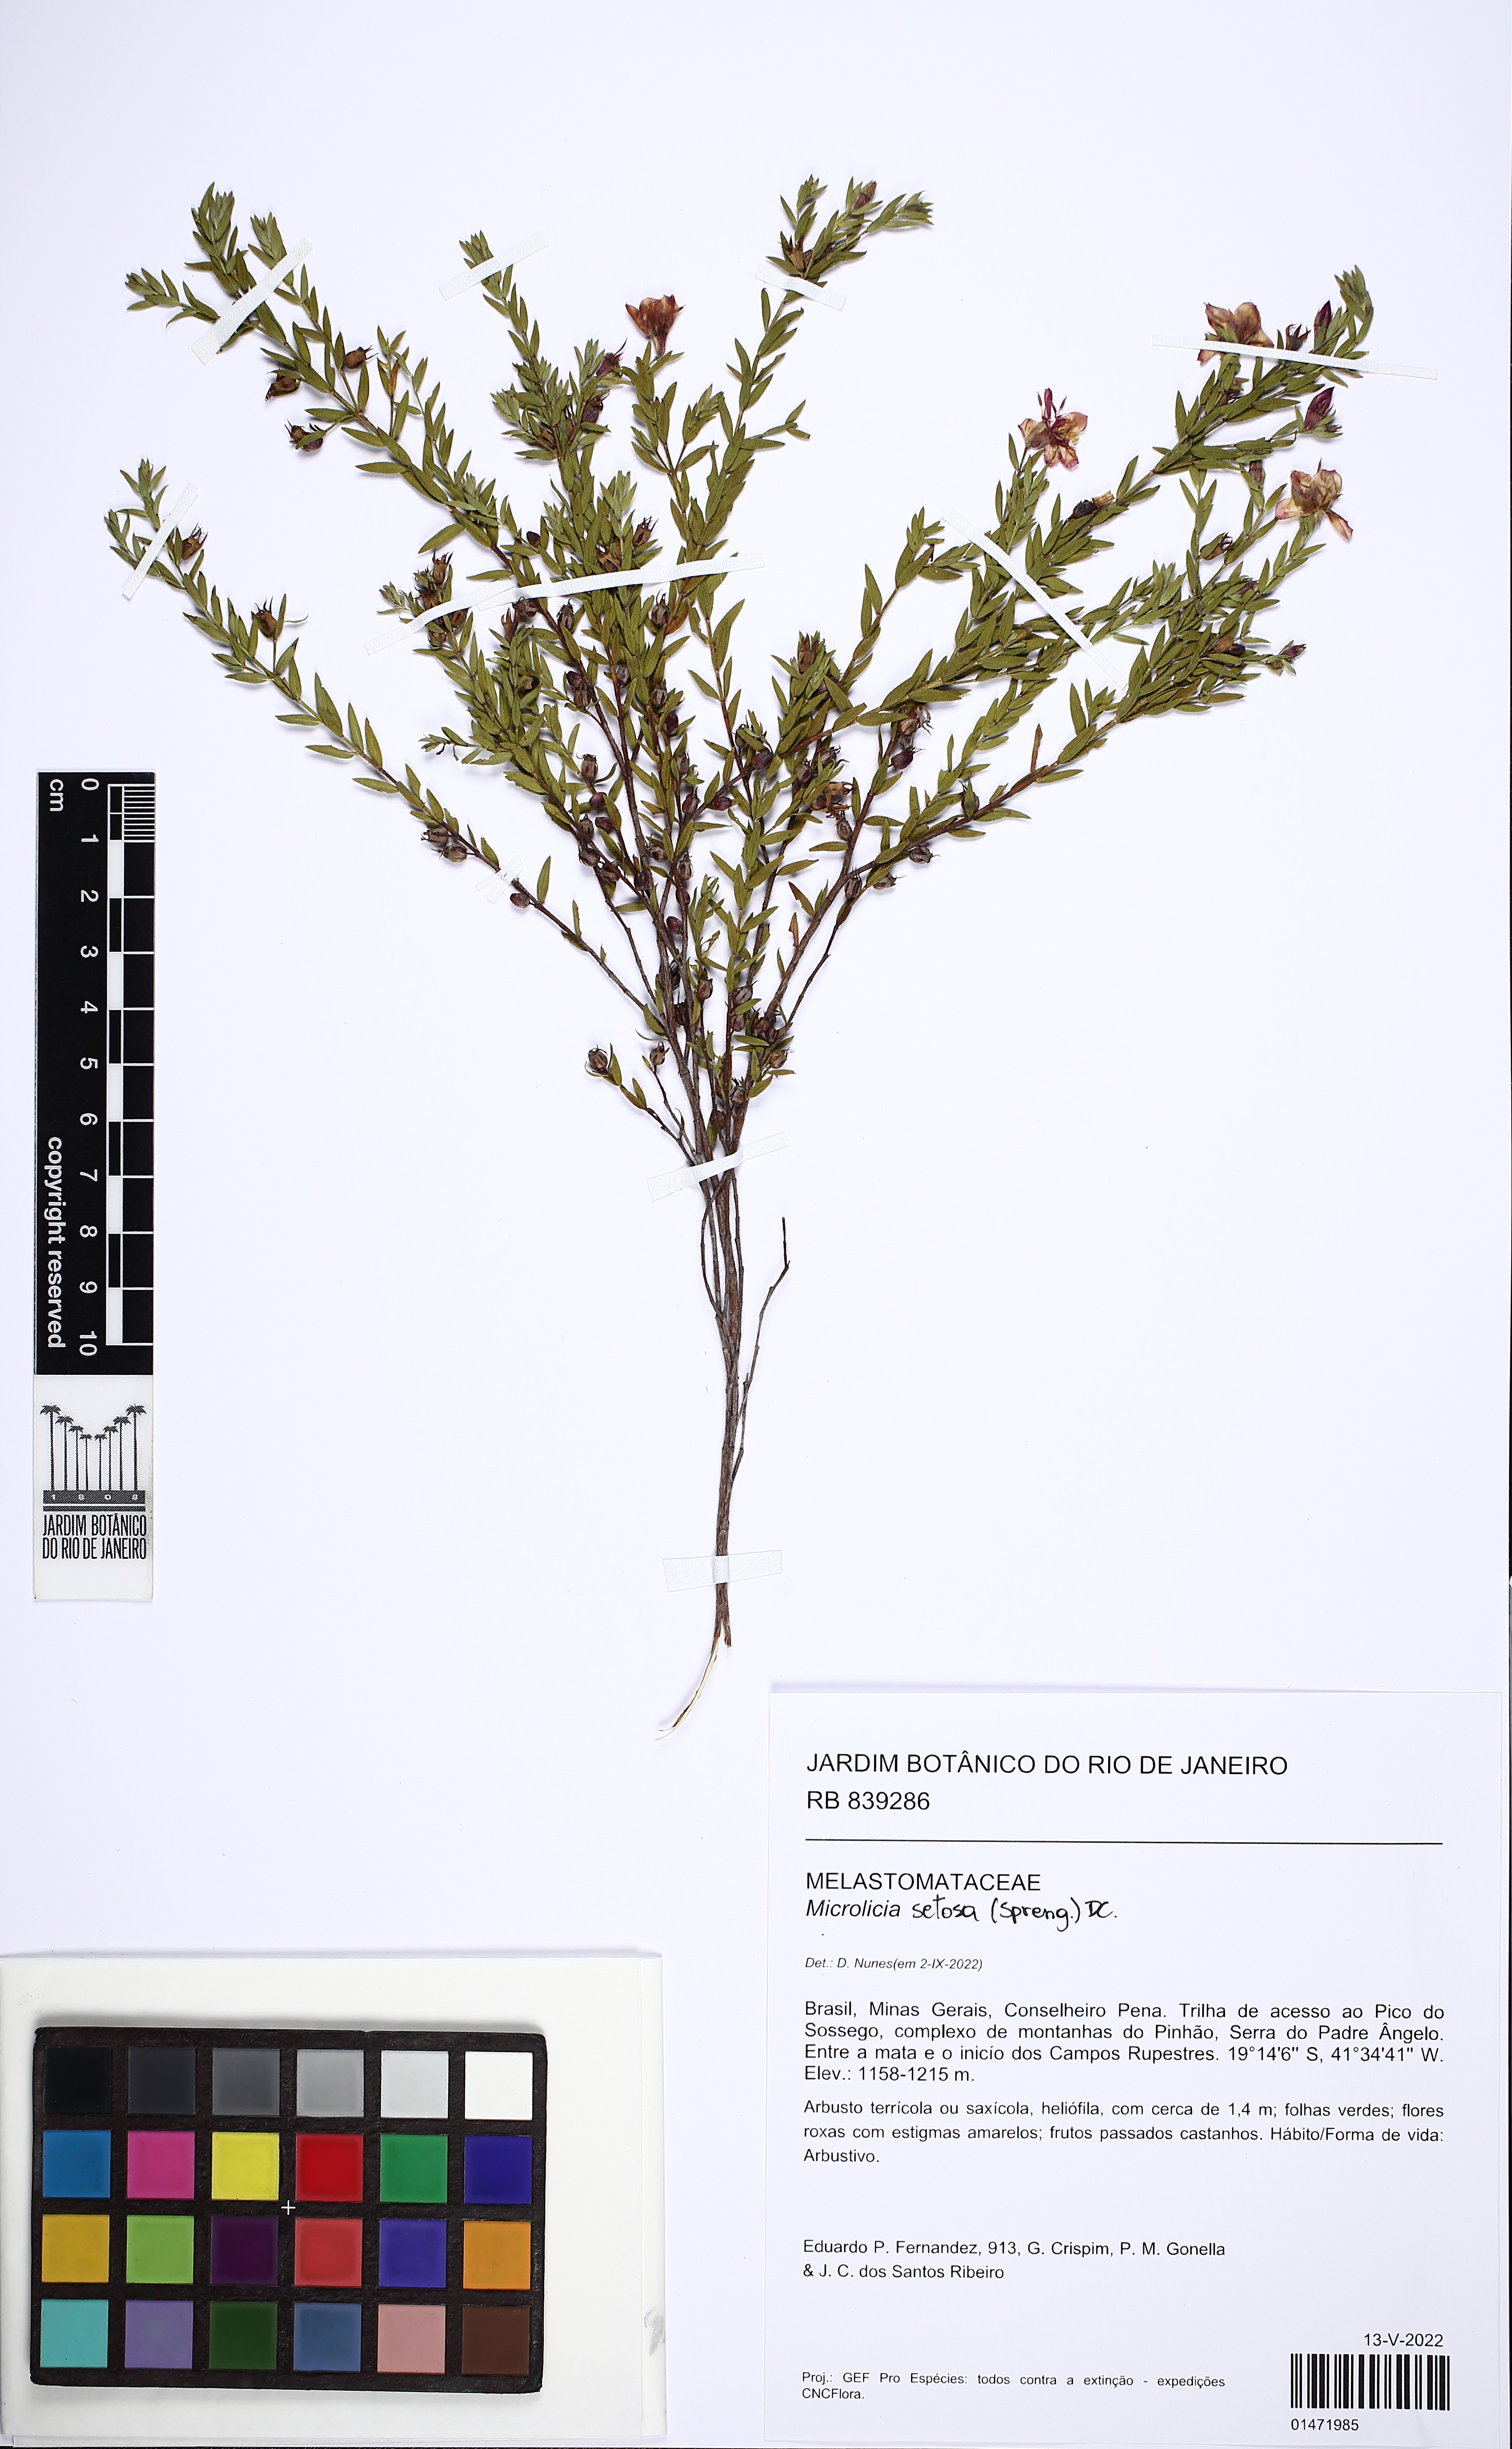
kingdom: Plantae
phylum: Tracheophyta
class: Magnoliopsida
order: Myrtales
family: Melastomataceae
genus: Microlicia
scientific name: Microlicia setosa
